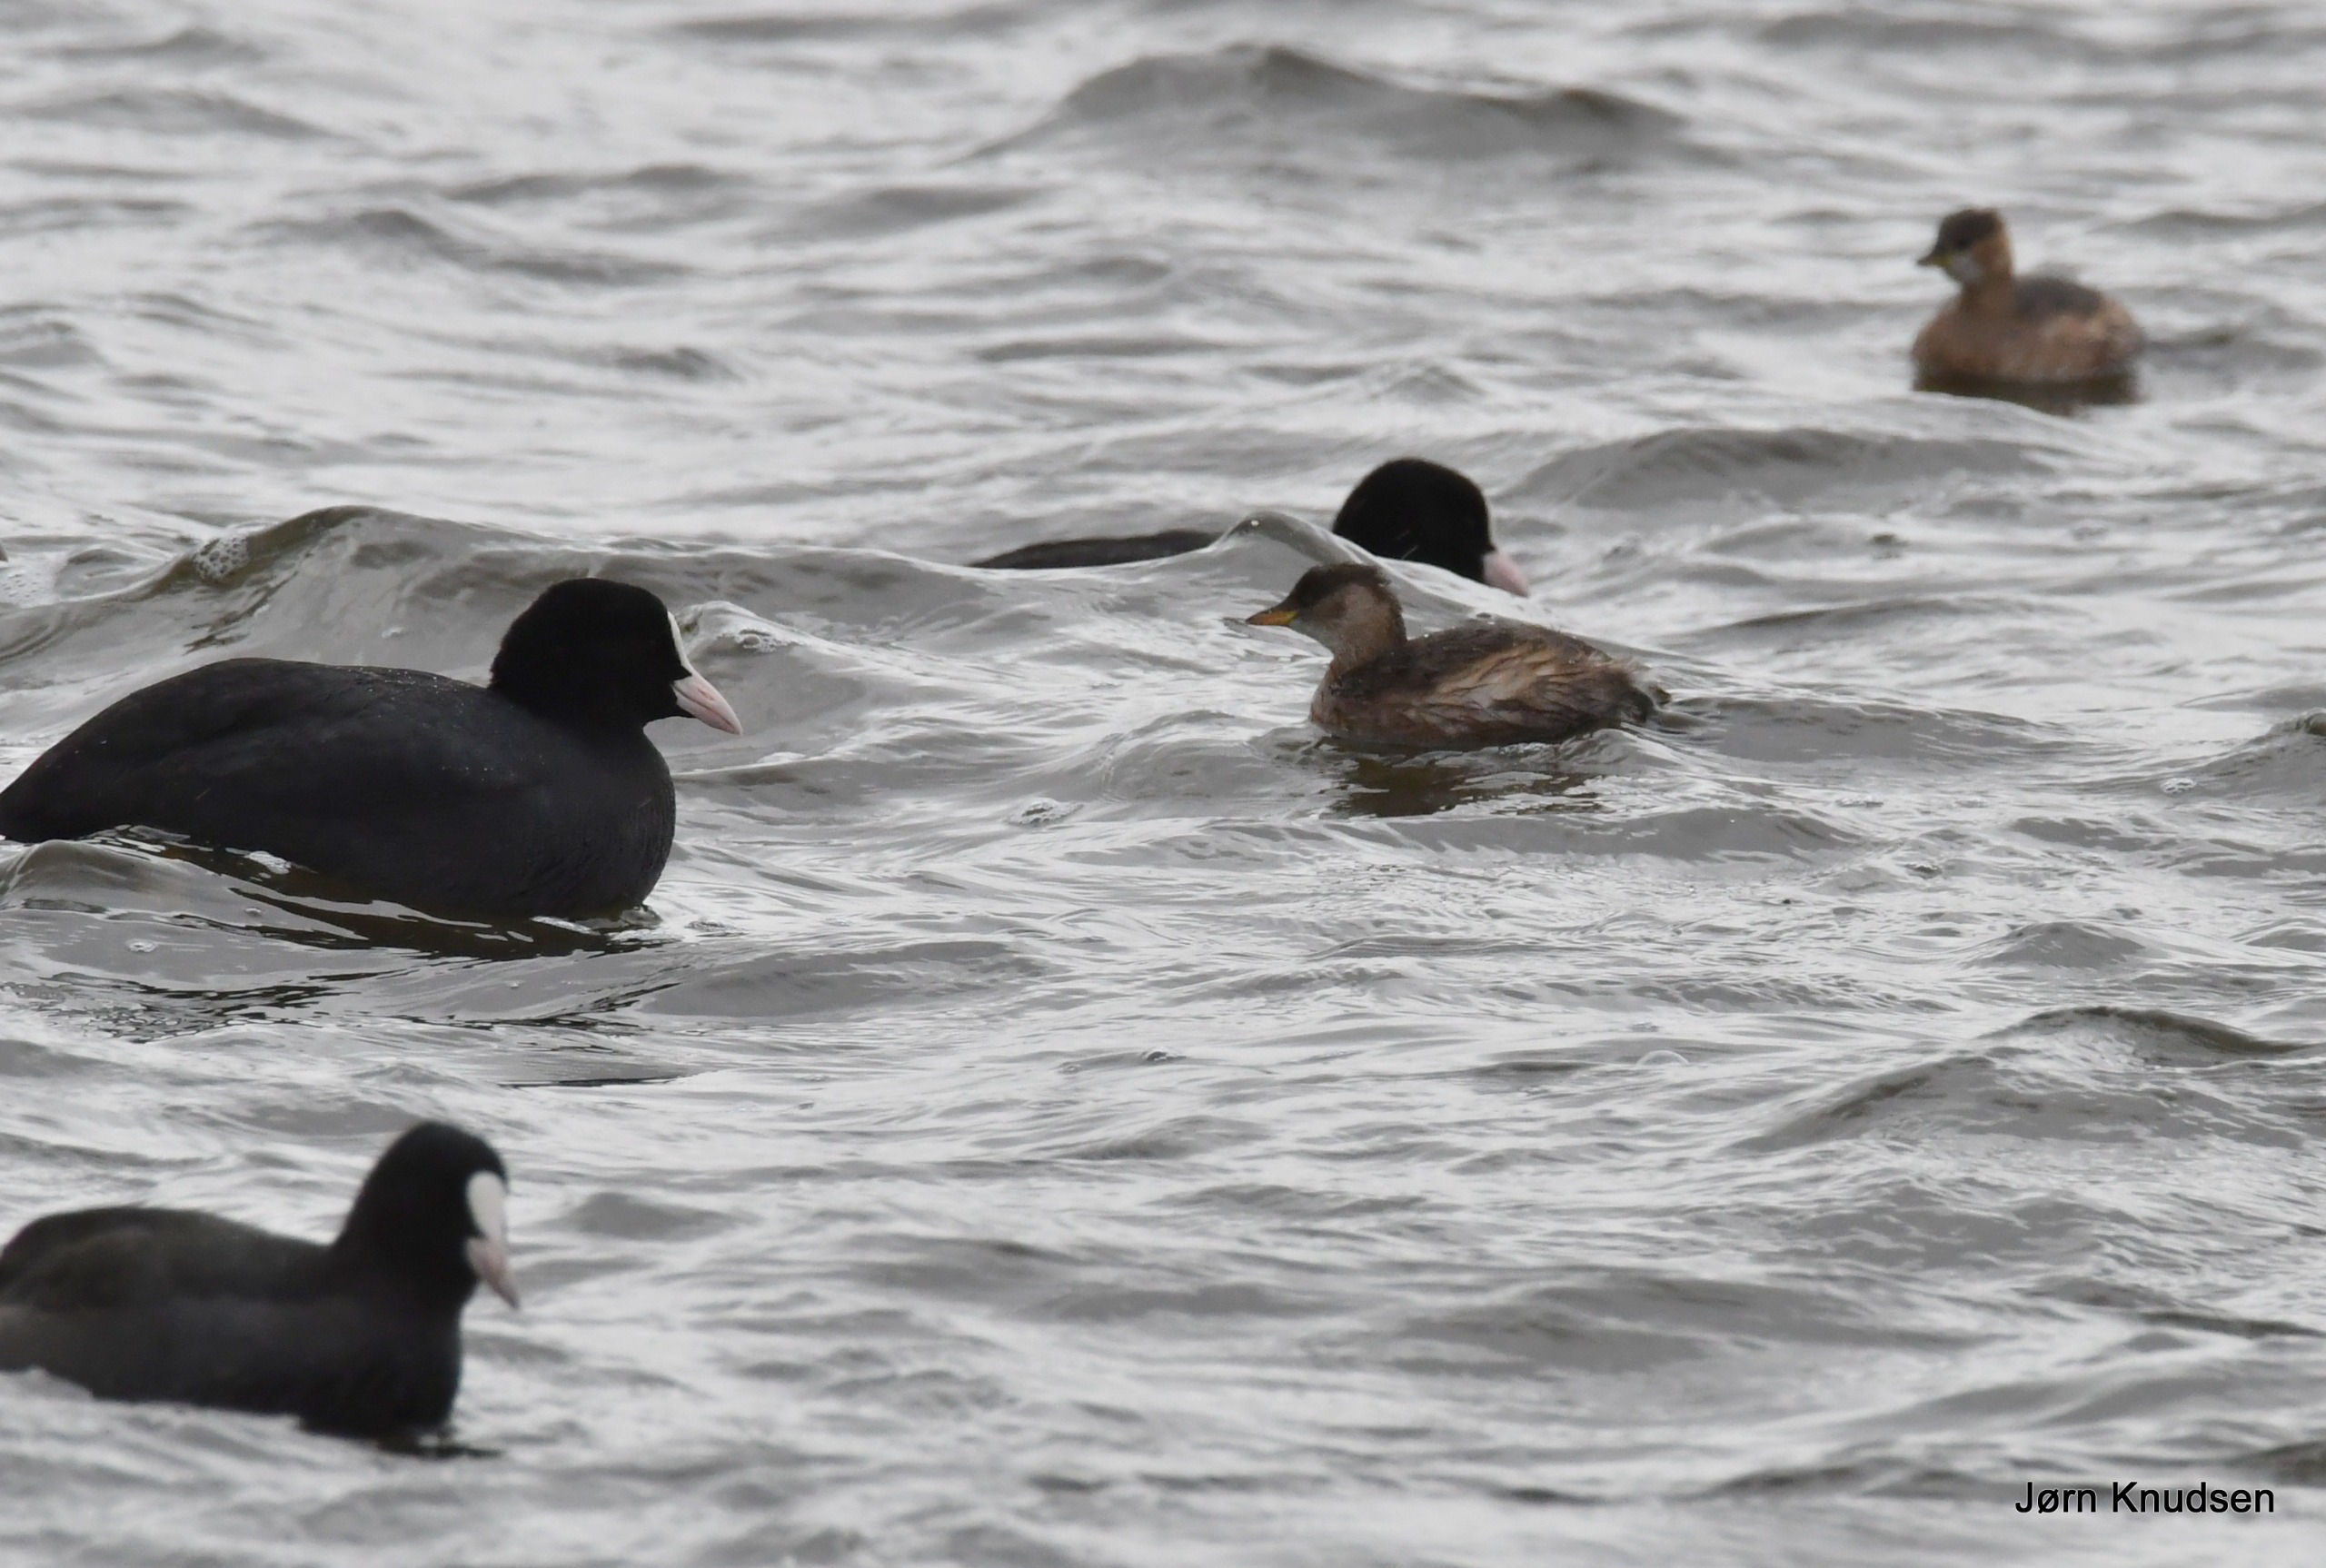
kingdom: Animalia
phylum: Chordata
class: Aves
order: Podicipediformes
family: Podicipedidae
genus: Tachybaptus
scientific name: Tachybaptus ruficollis
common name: Lille lappedykker
